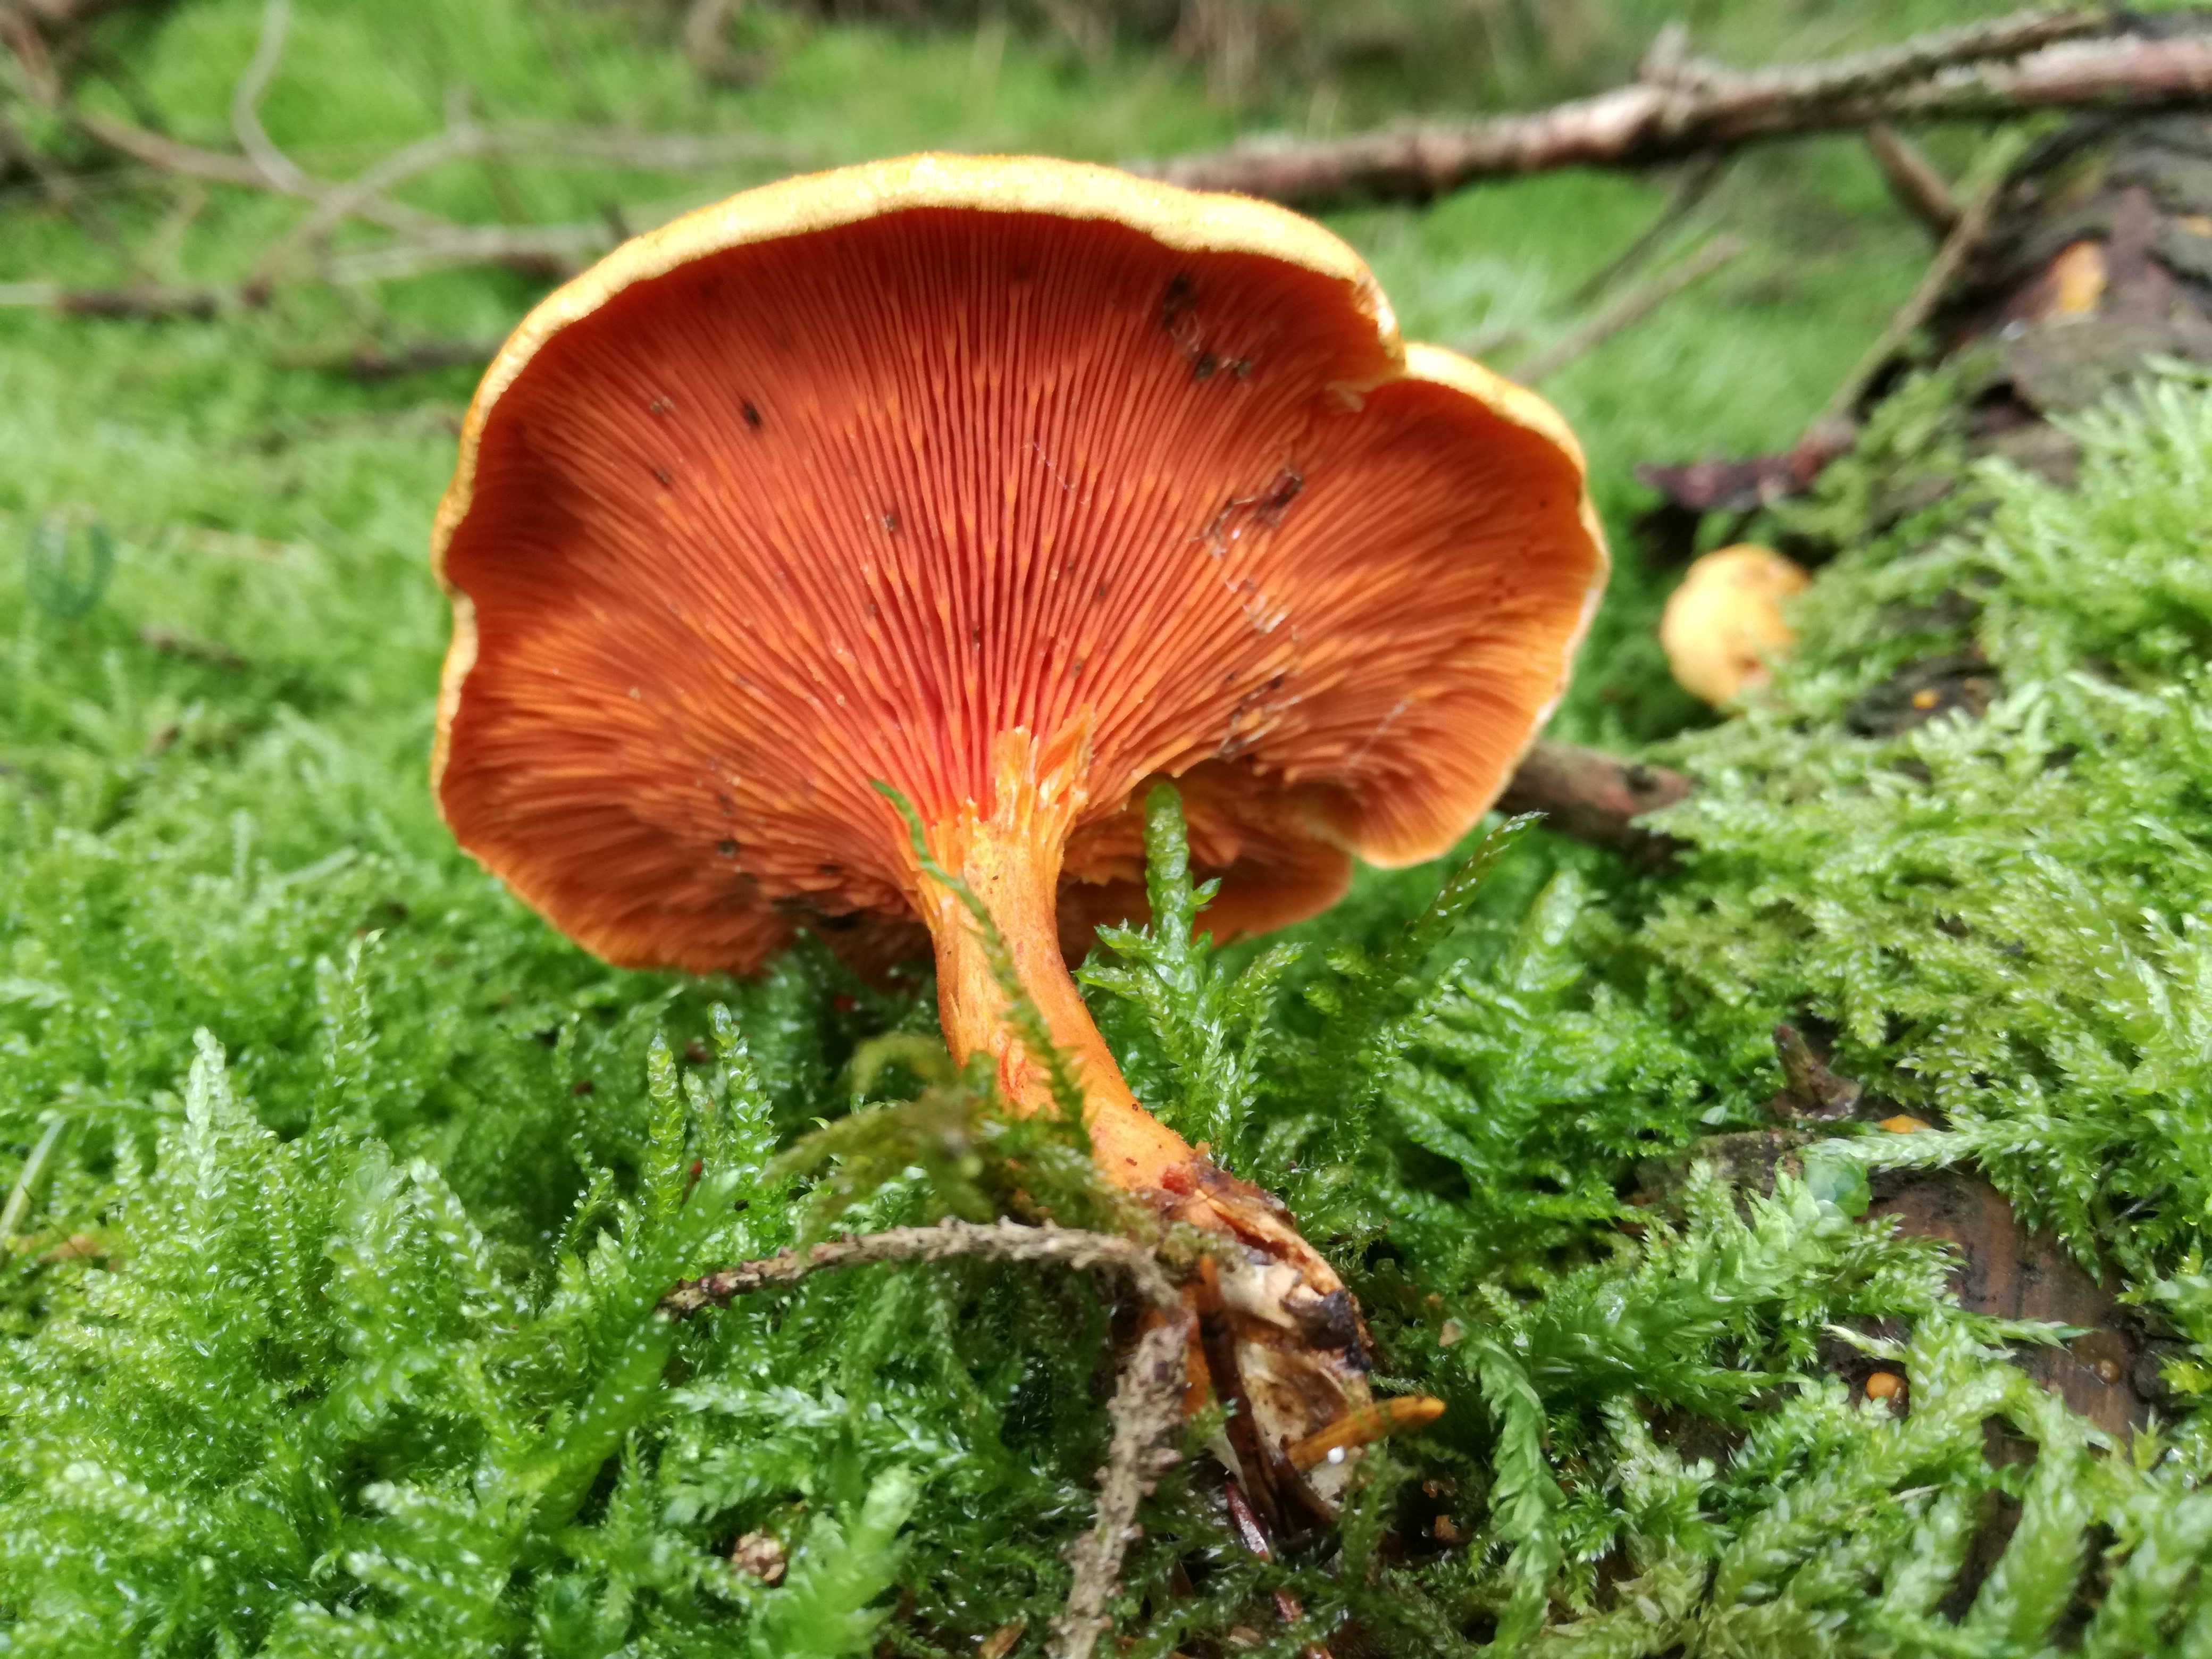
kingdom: Fungi
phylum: Basidiomycota
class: Agaricomycetes
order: Boletales
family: Hygrophoropsidaceae
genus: Hygrophoropsis
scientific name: Hygrophoropsis aurantiaca
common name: almindelig orangekantarel
